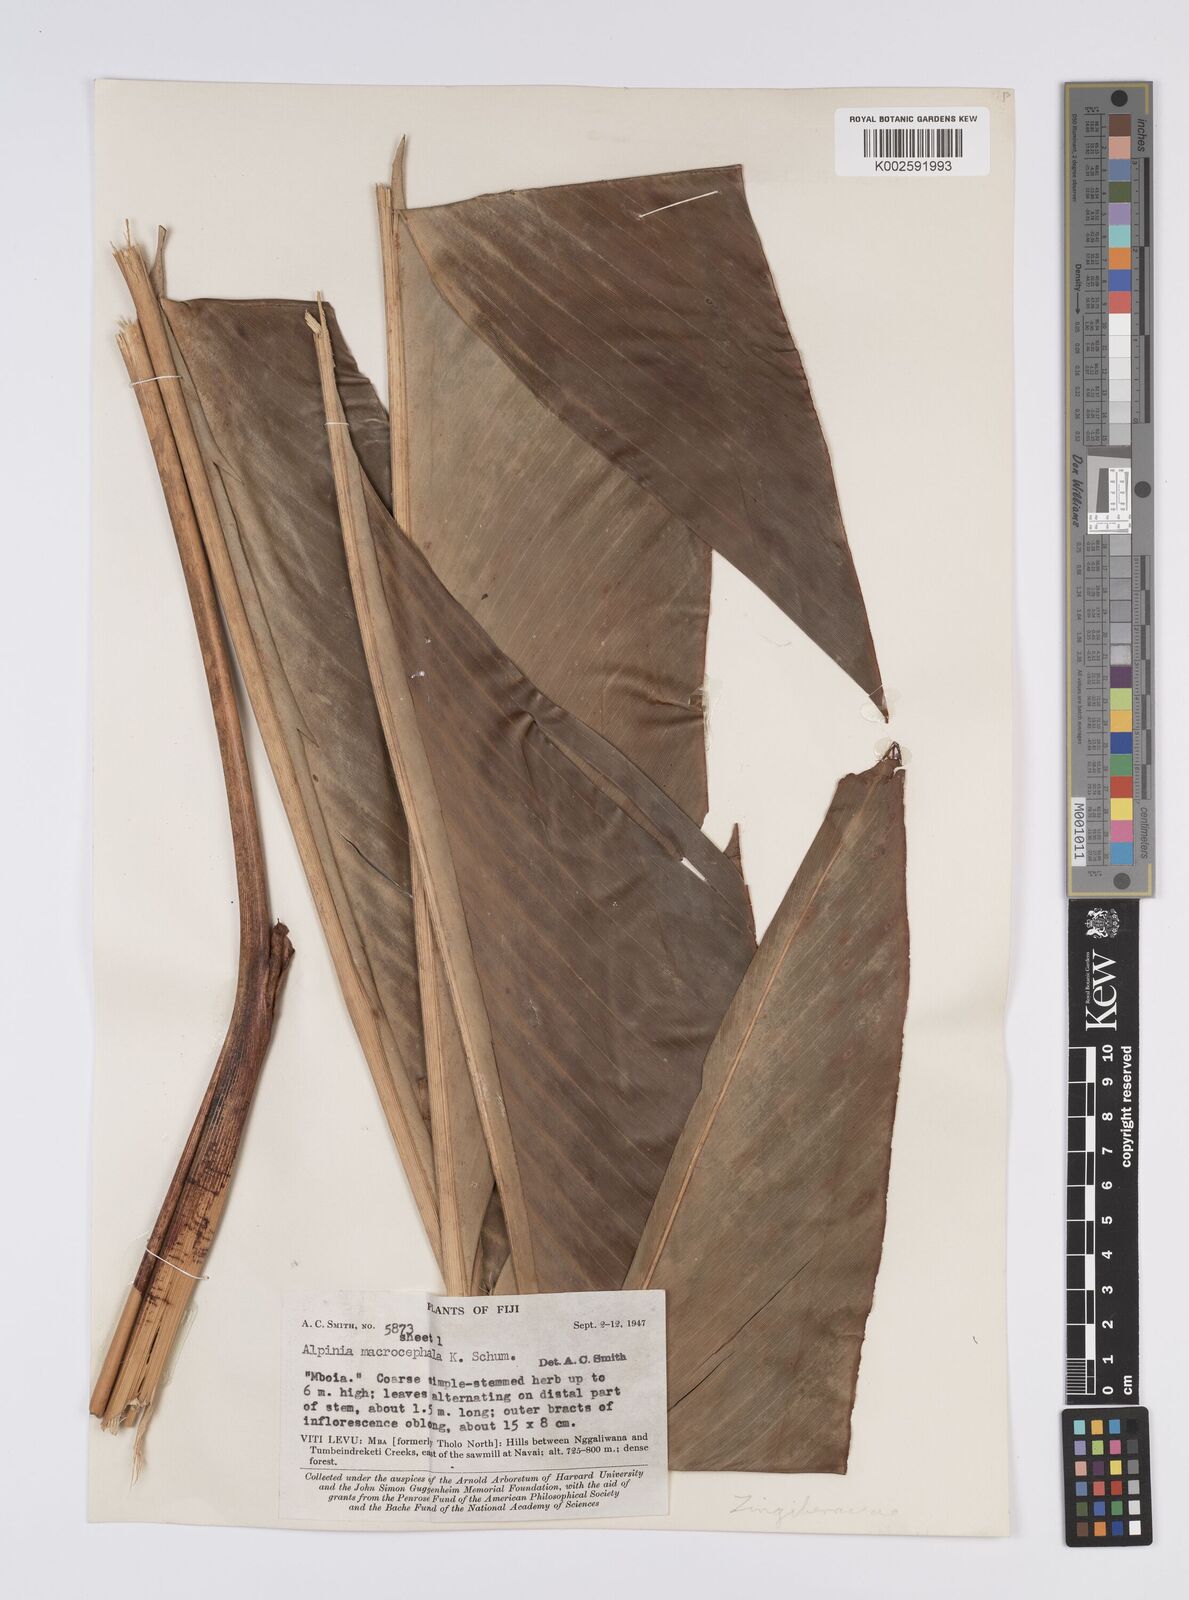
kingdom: Plantae
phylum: Tracheophyta
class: Liliopsida
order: Zingiberales
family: Zingiberaceae
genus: Alpinia
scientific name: Alpinia macrocephala
